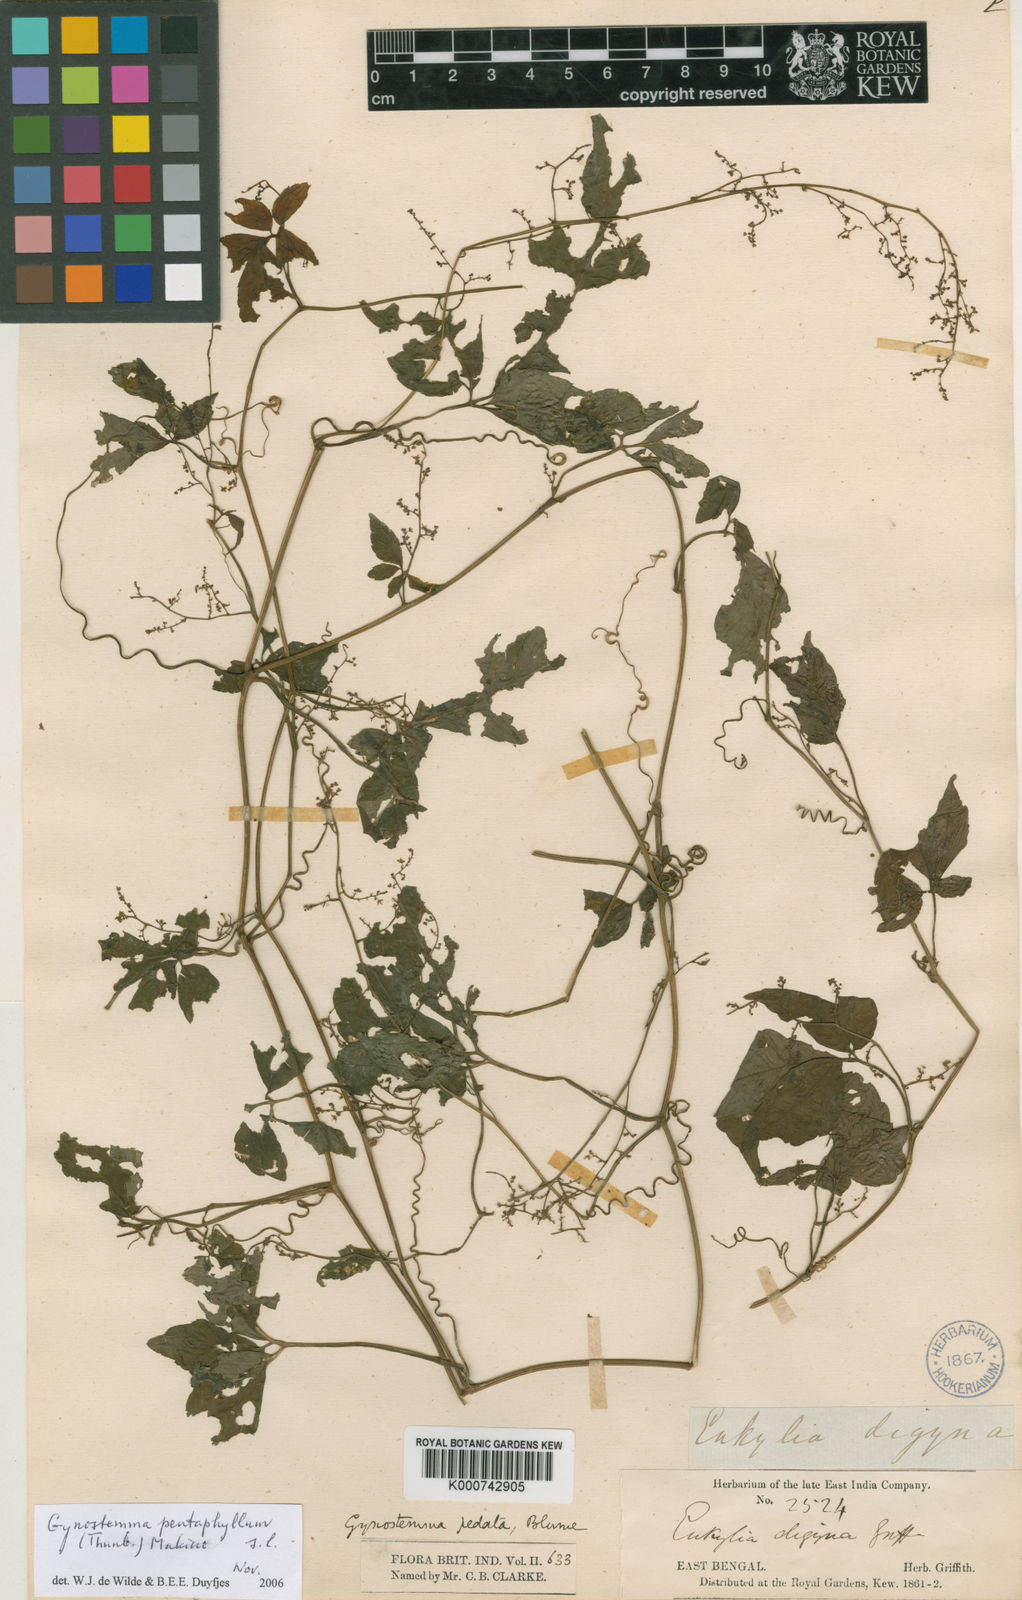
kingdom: Plantae
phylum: Tracheophyta
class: Magnoliopsida
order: Cucurbitales
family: Cucurbitaceae
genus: Gynostemma
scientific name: Gynostemma pentaphyllum
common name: Gynostemma
